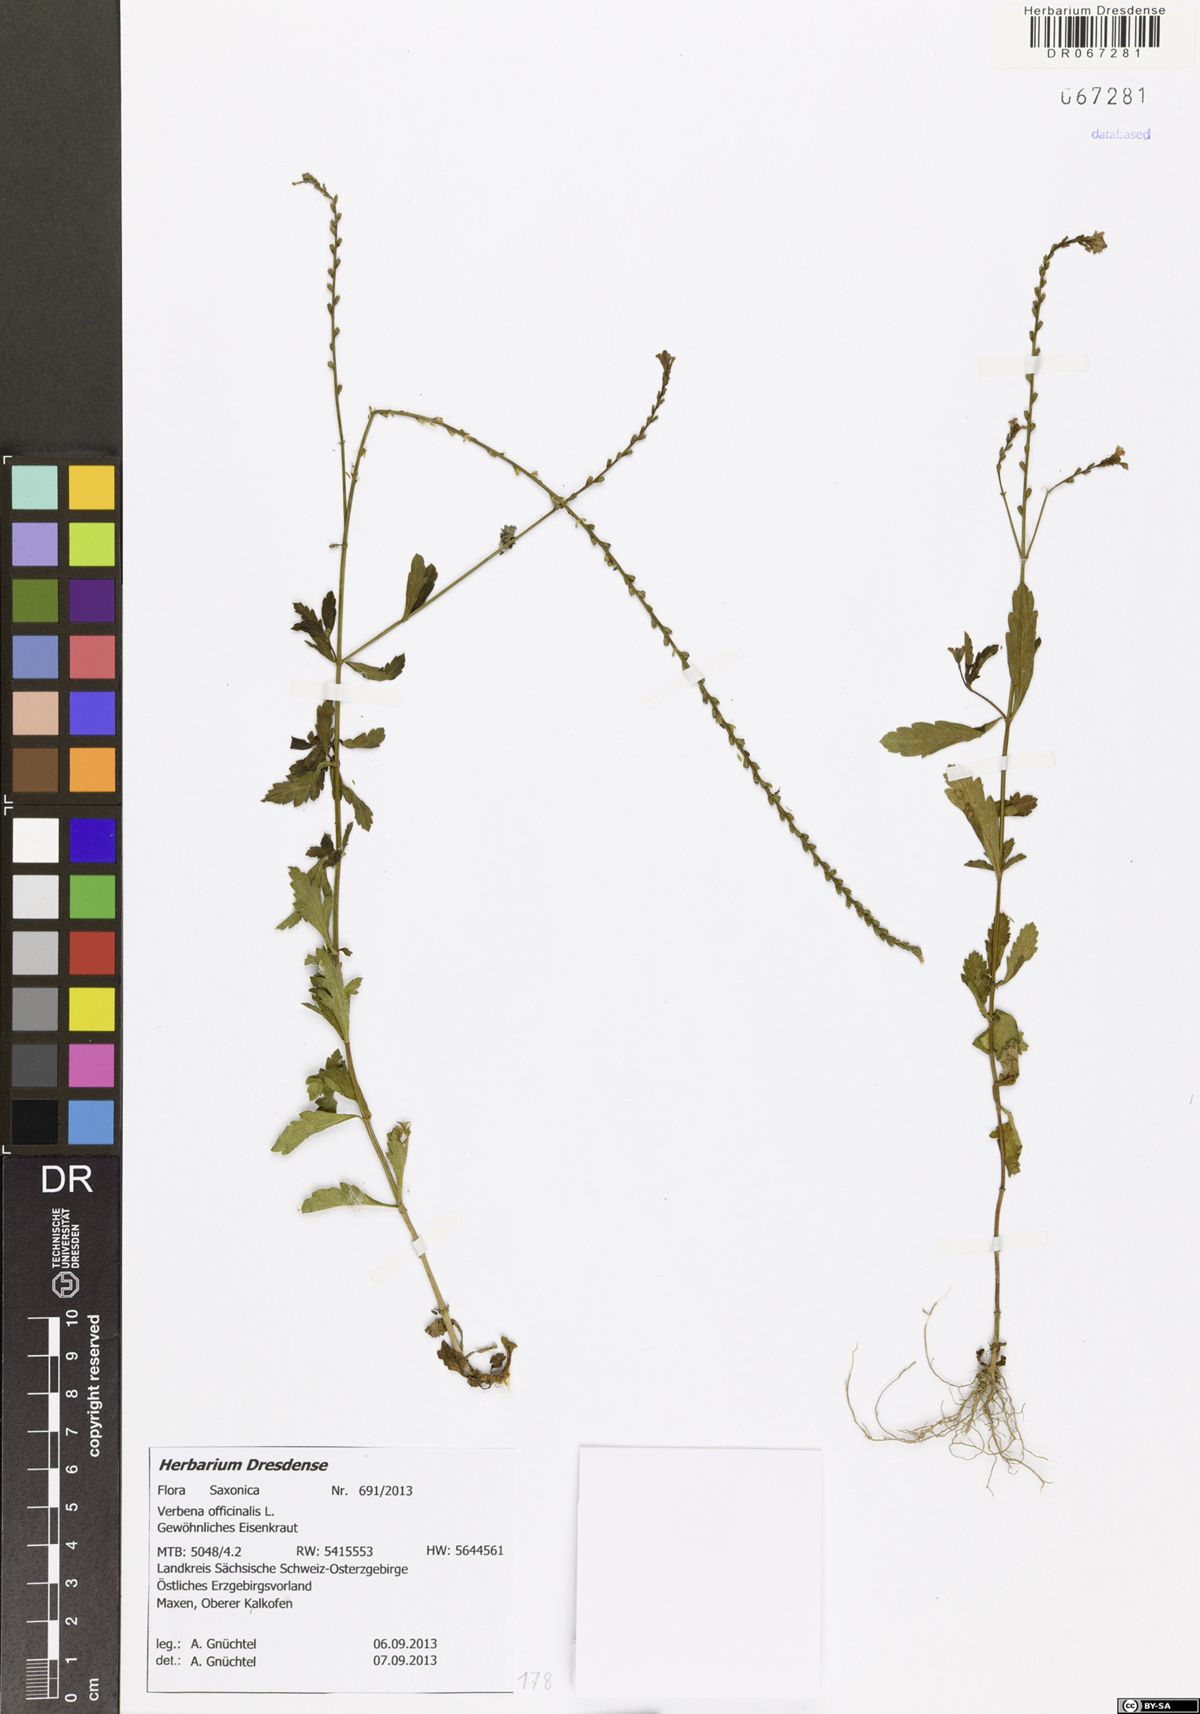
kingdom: Plantae
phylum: Tracheophyta
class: Magnoliopsida
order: Lamiales
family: Verbenaceae
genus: Verbena
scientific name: Verbena officinalis
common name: Vervain
